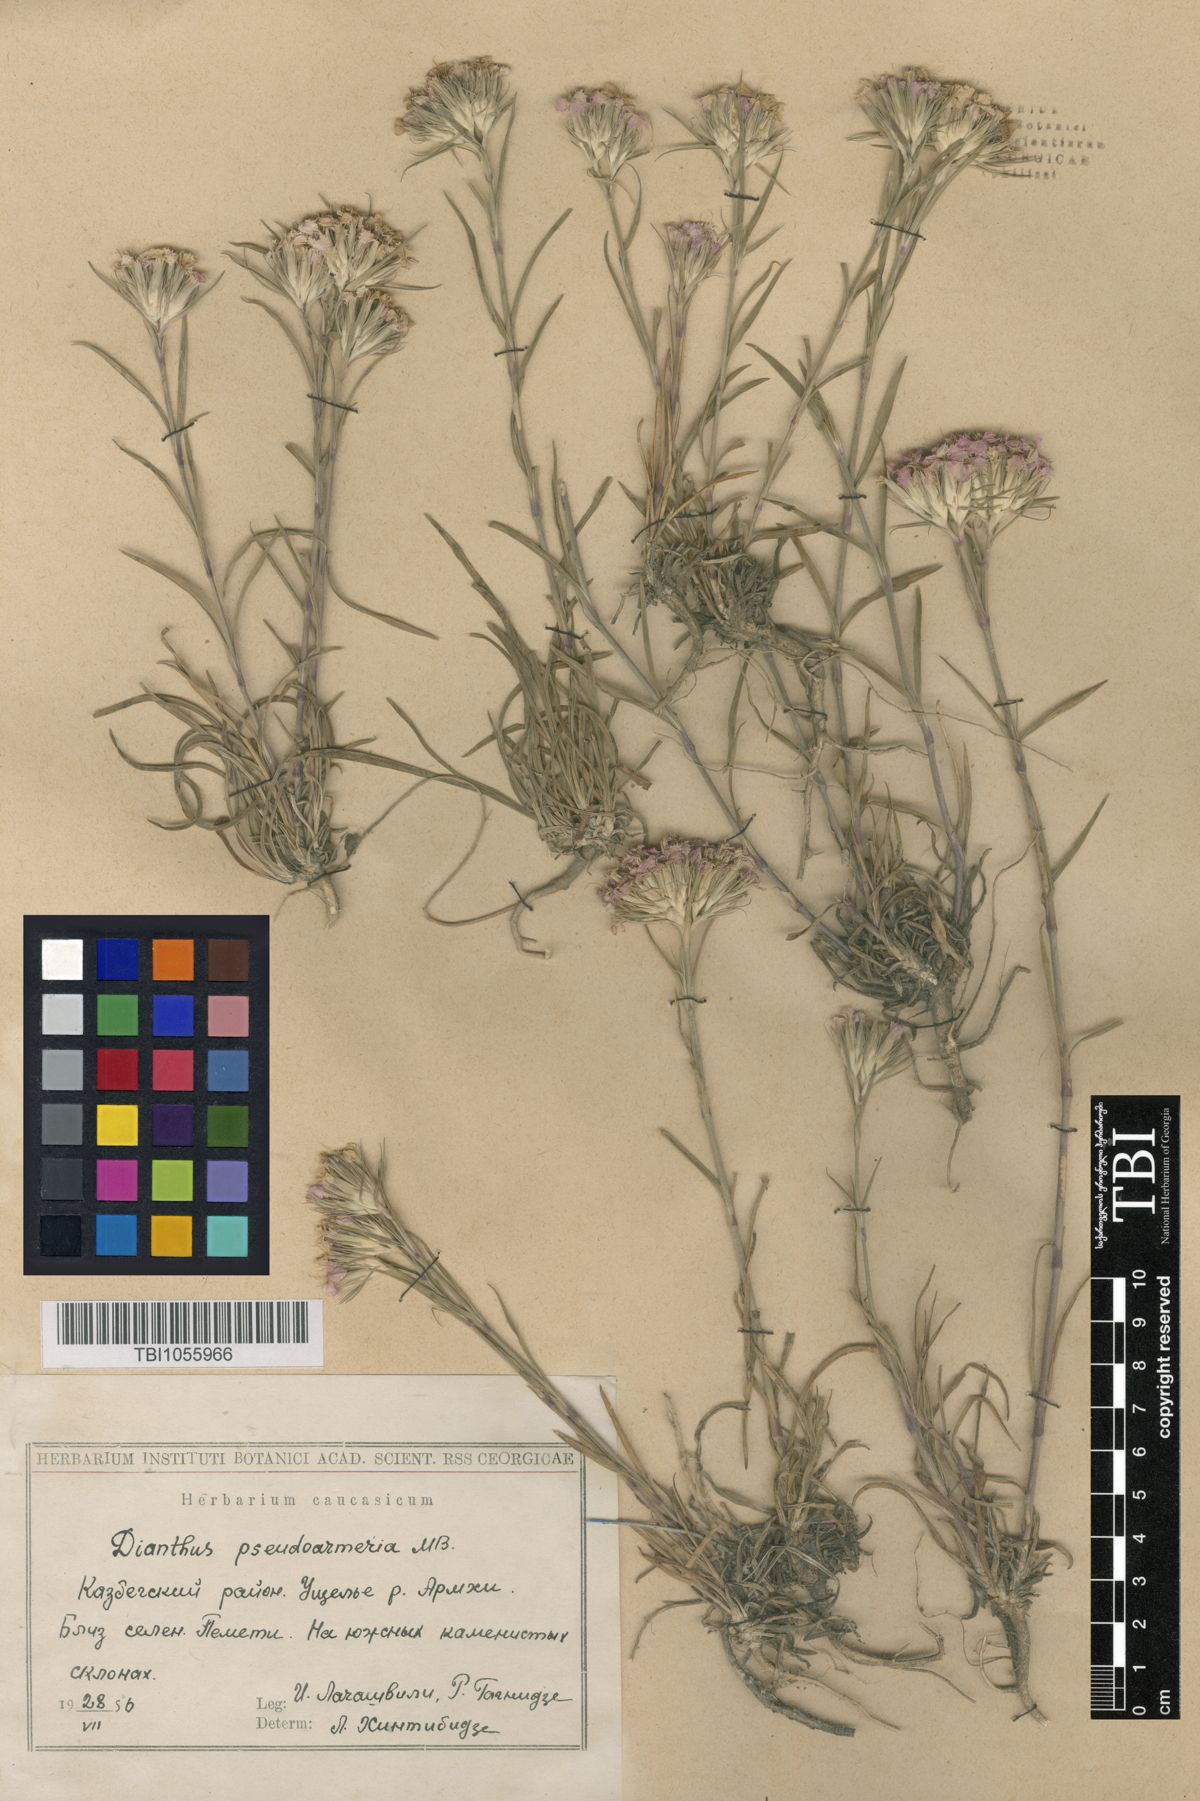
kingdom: Plantae
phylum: Tracheophyta
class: Magnoliopsida
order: Caryophyllales
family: Caryophyllaceae
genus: Dianthus
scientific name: Dianthus pseudarmeria
